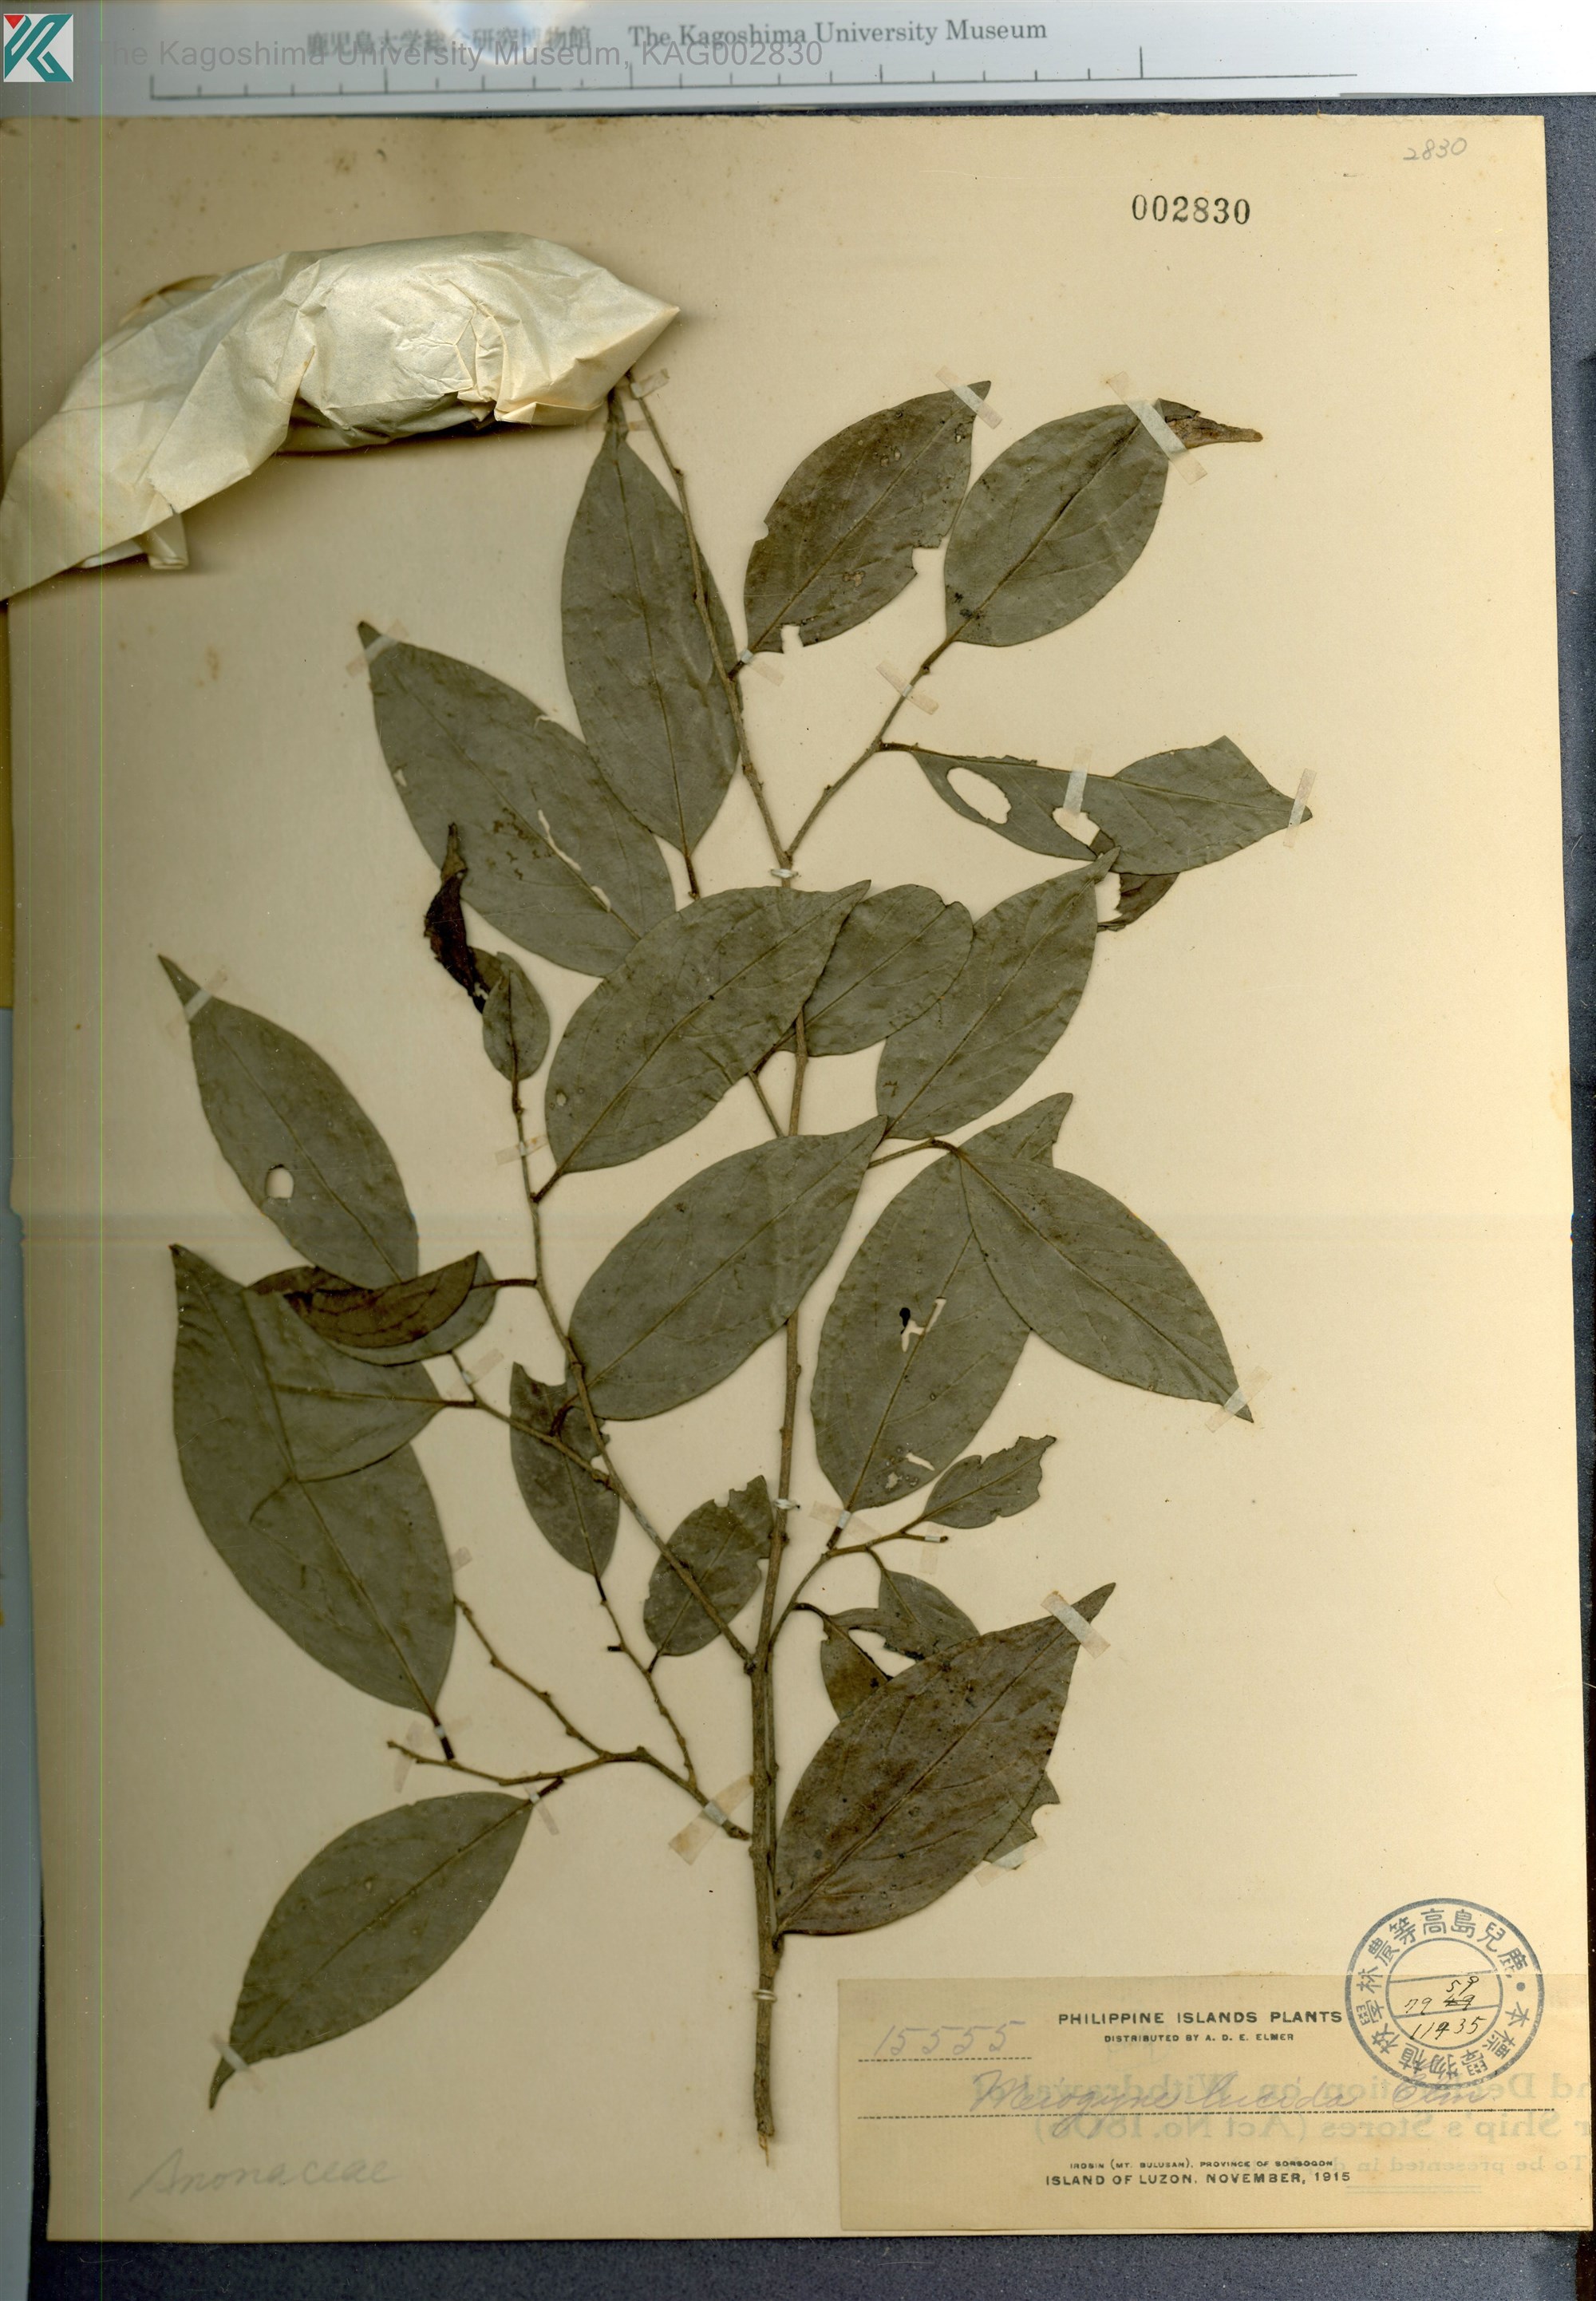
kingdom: Plantae
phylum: Tracheophyta
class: Magnoliopsida
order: Magnoliales
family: Annonaceae
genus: Meiogyne
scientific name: Meiogyne virgata
